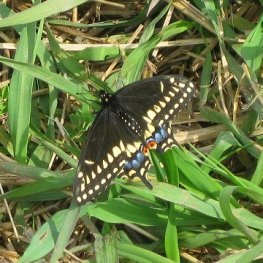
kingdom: Animalia
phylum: Arthropoda
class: Insecta
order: Lepidoptera
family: Papilionidae
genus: Papilio
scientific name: Papilio polyxenes
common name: Black Swallowtail
